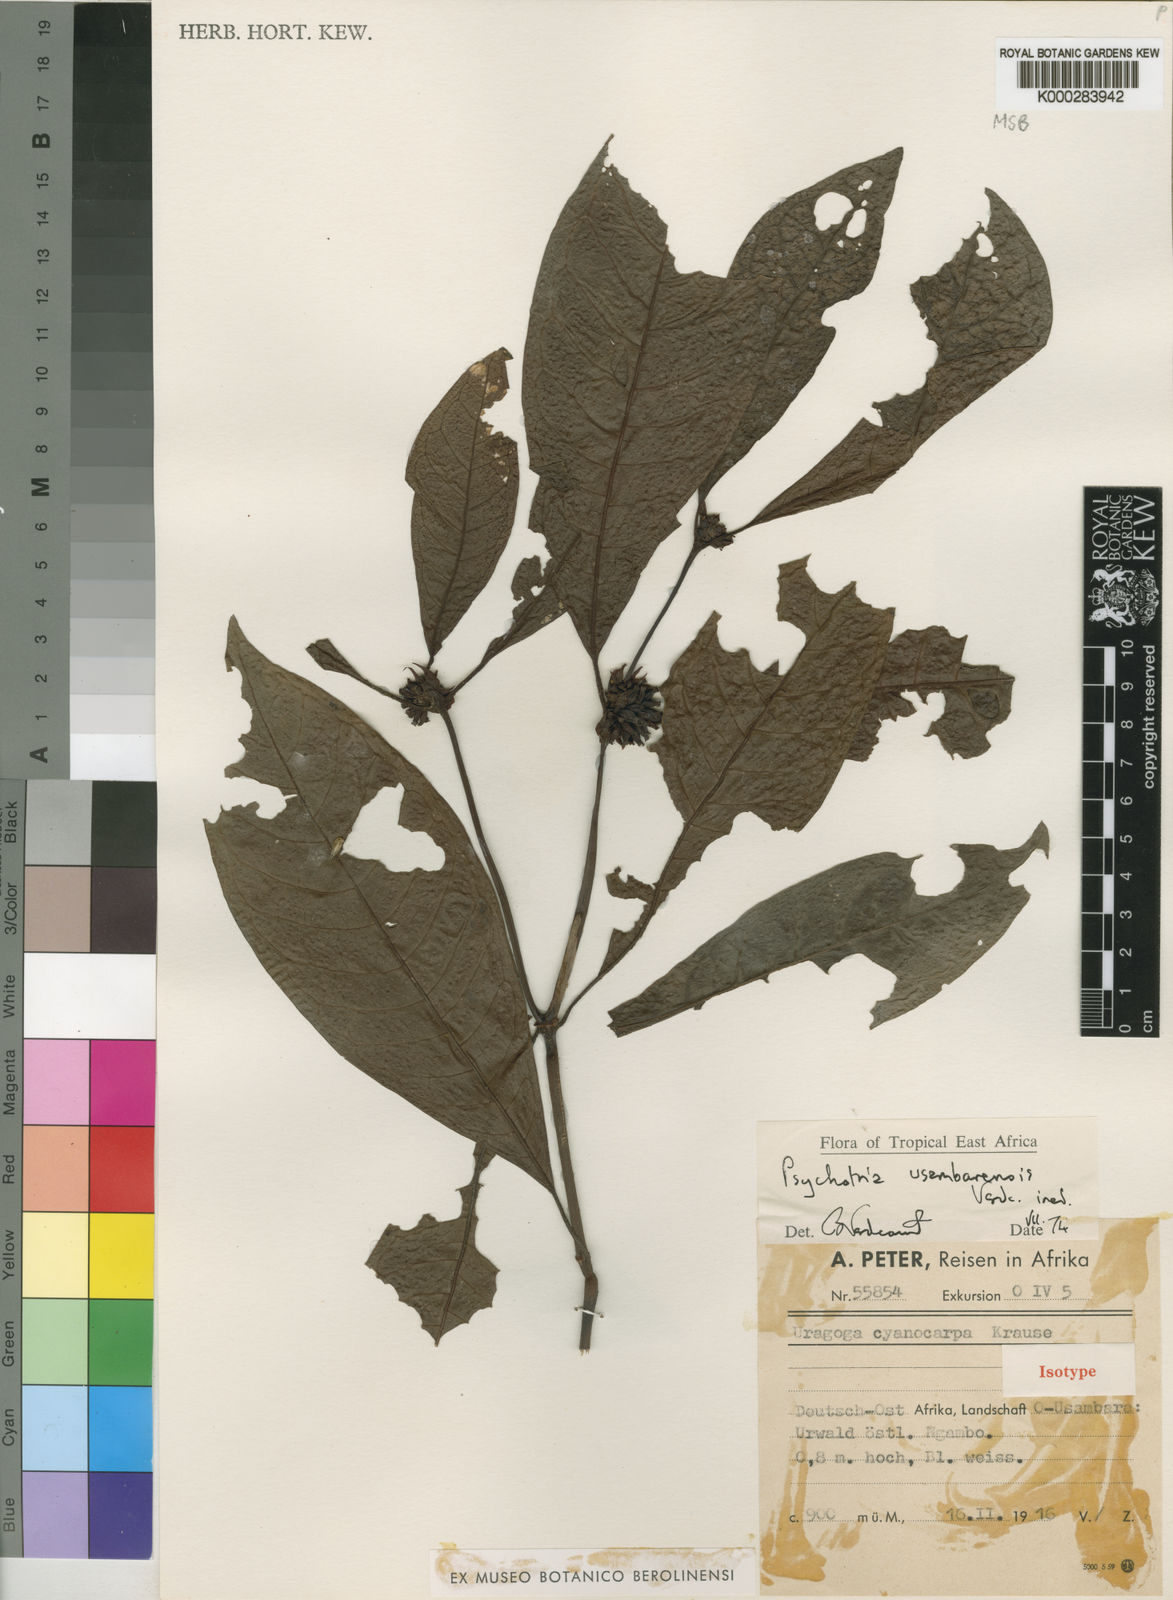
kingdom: Plantae
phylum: Tracheophyta
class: Magnoliopsida
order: Gentianales
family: Rubiaceae
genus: Psychotria
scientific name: Psychotria usambarensis
